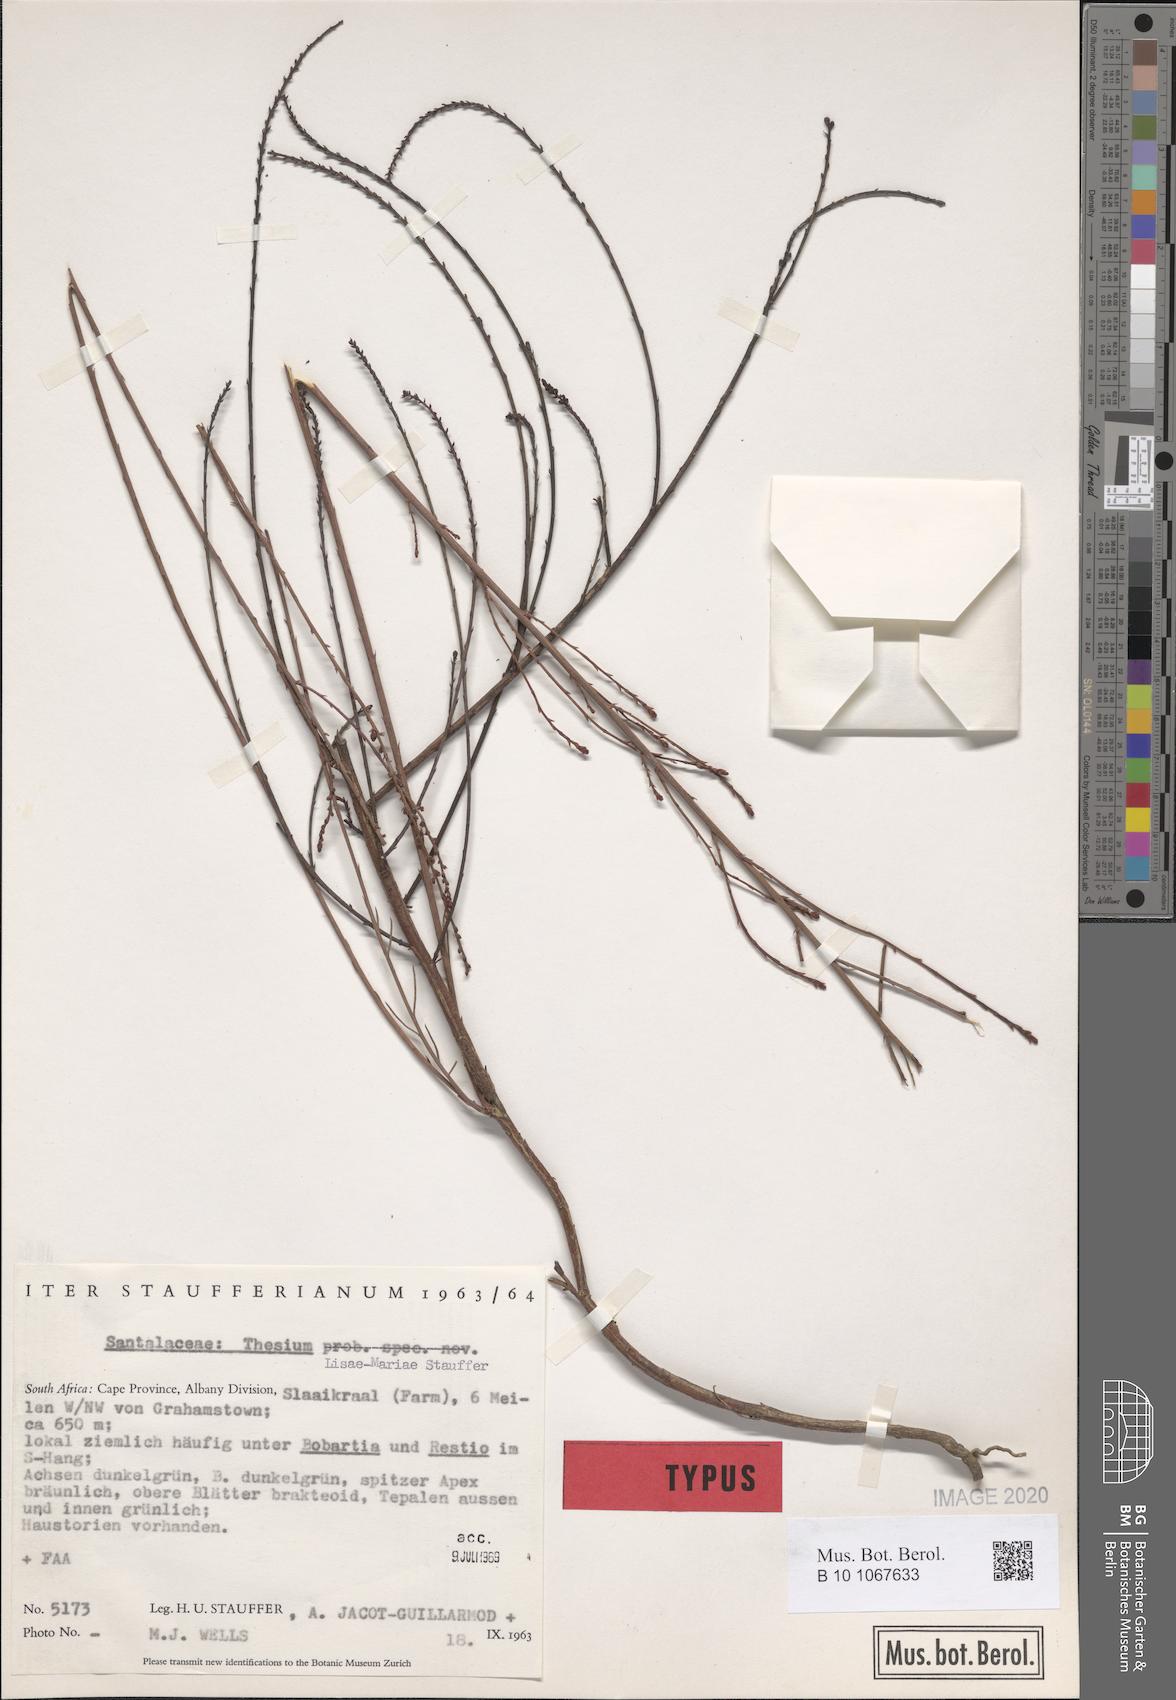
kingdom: Plantae
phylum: Tracheophyta
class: Magnoliopsida
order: Santalales
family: Thesiaceae
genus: Thesium
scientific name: Thesium lisae-mariae
